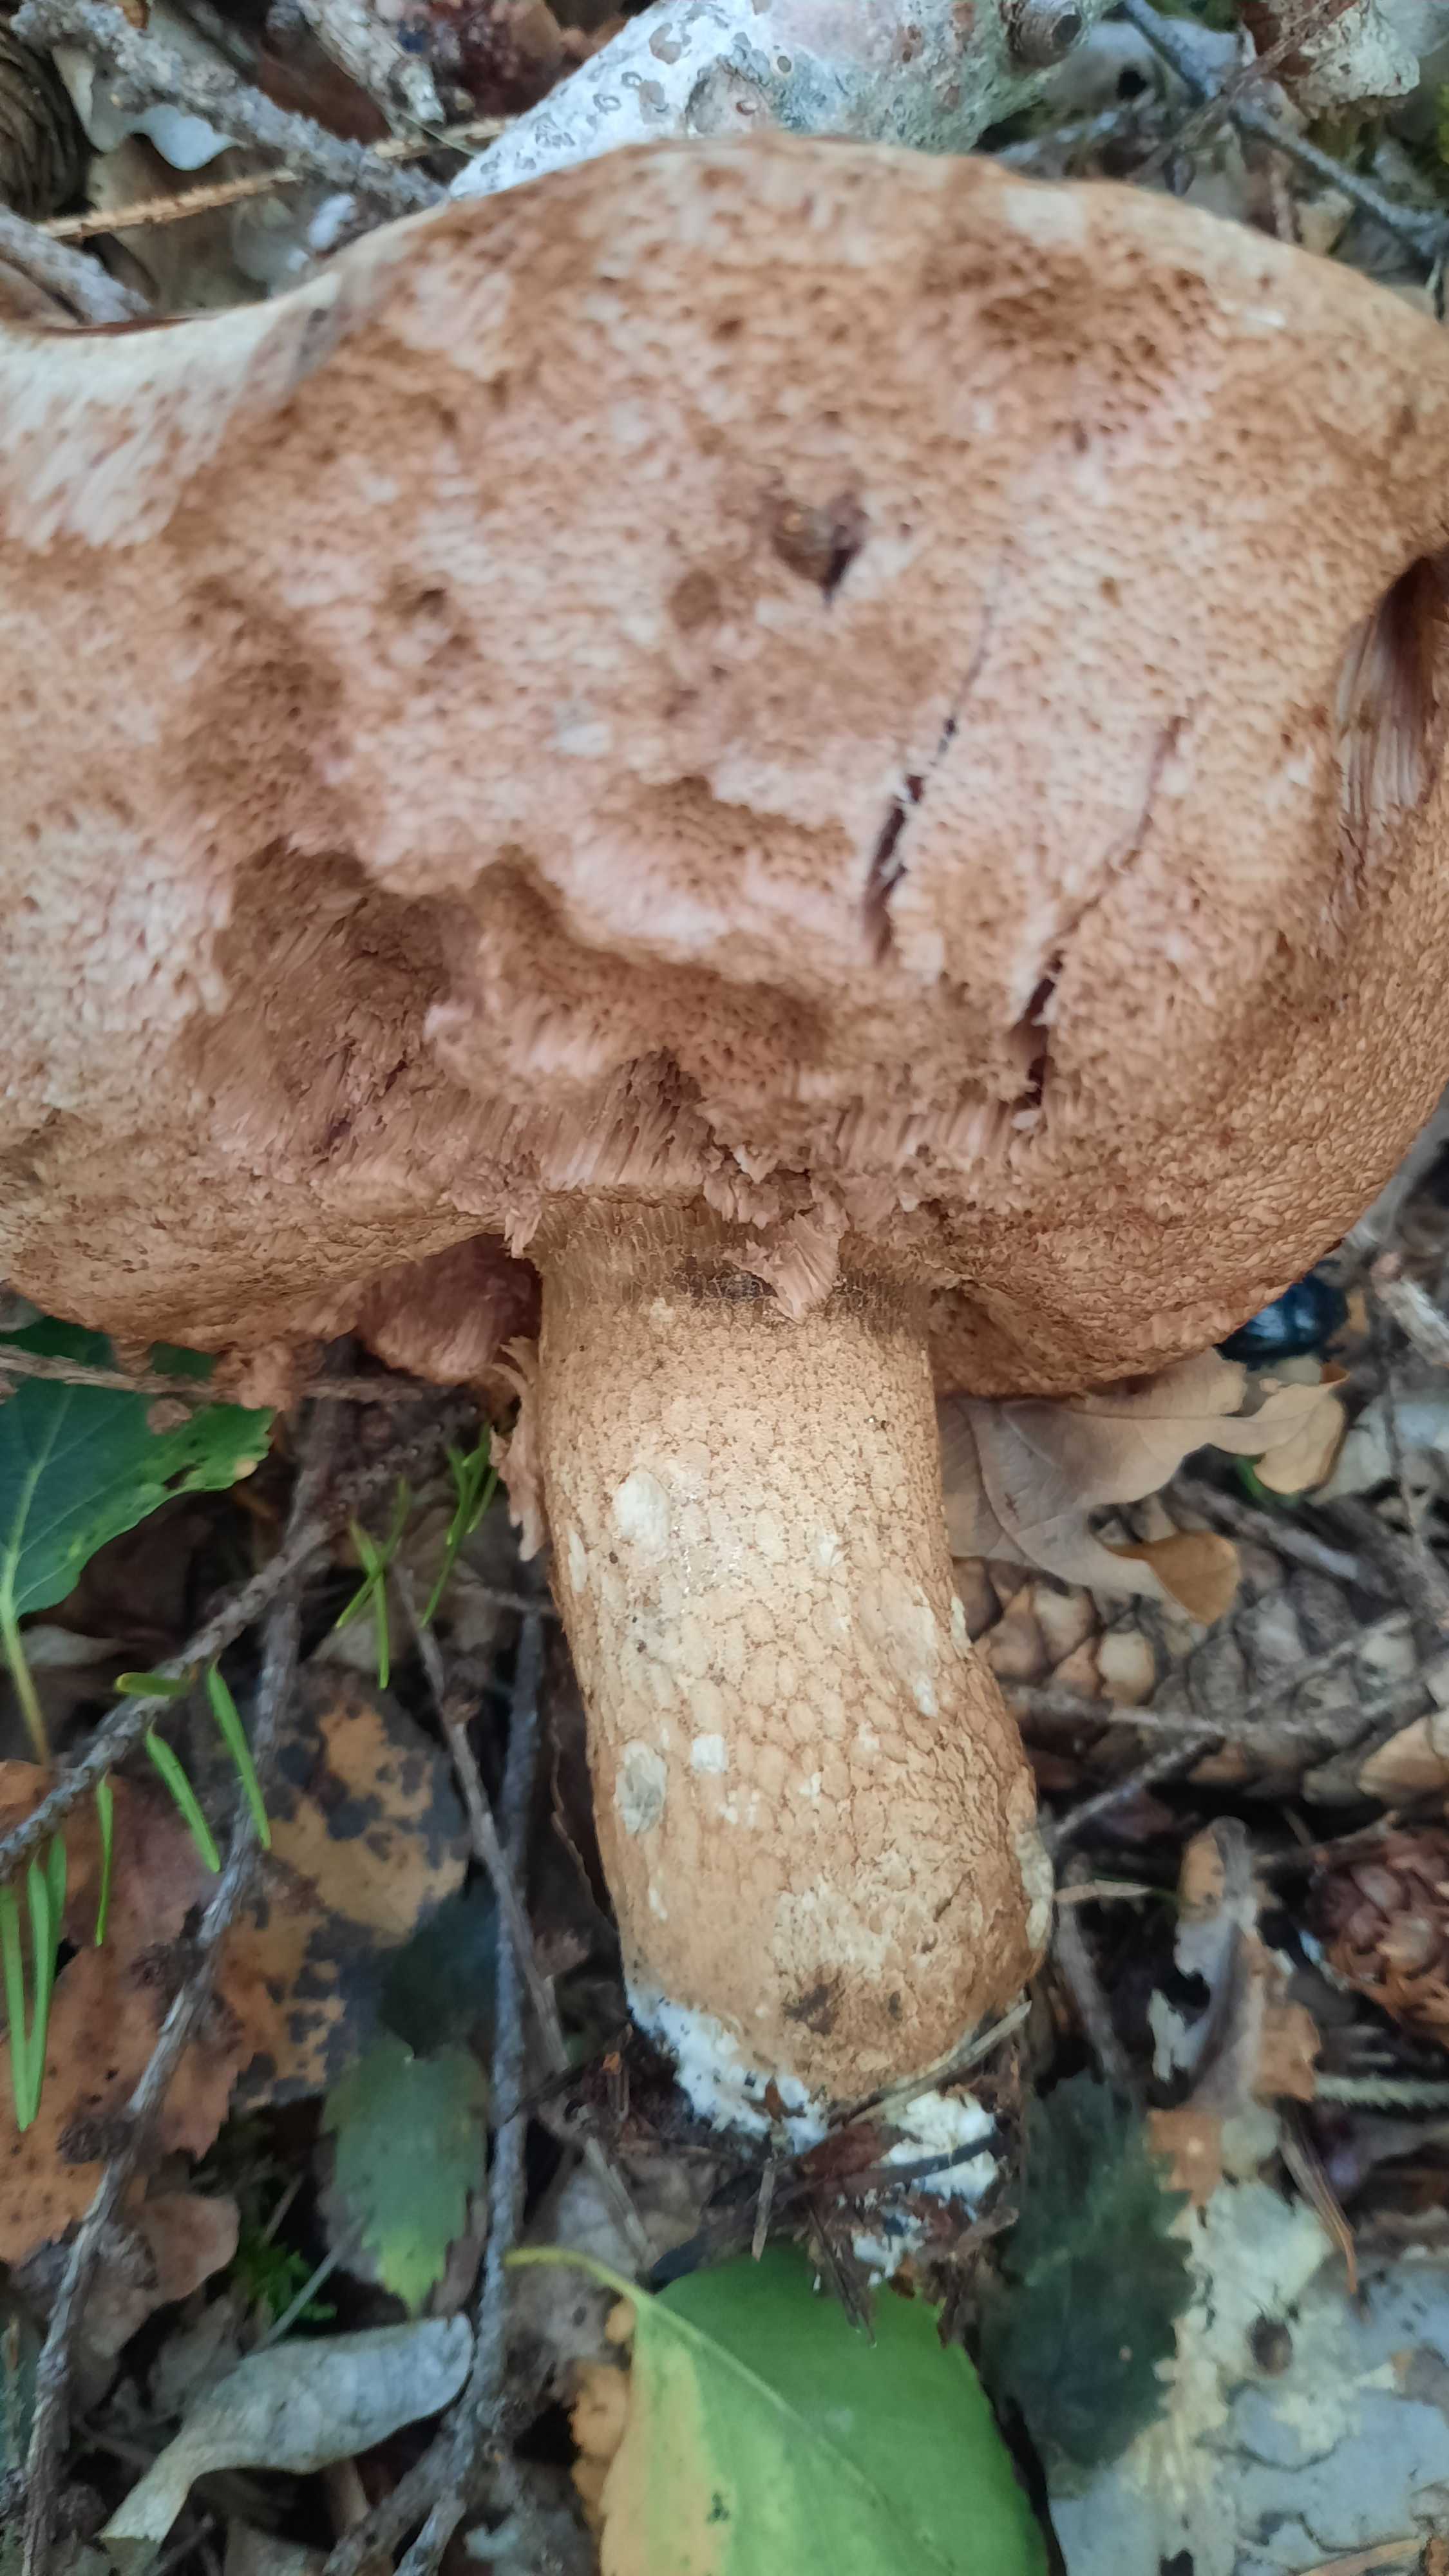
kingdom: Fungi
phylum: Basidiomycota
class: Agaricomycetes
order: Boletales
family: Boletaceae
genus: Tylopilus
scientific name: Tylopilus felleus
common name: galderørhat
